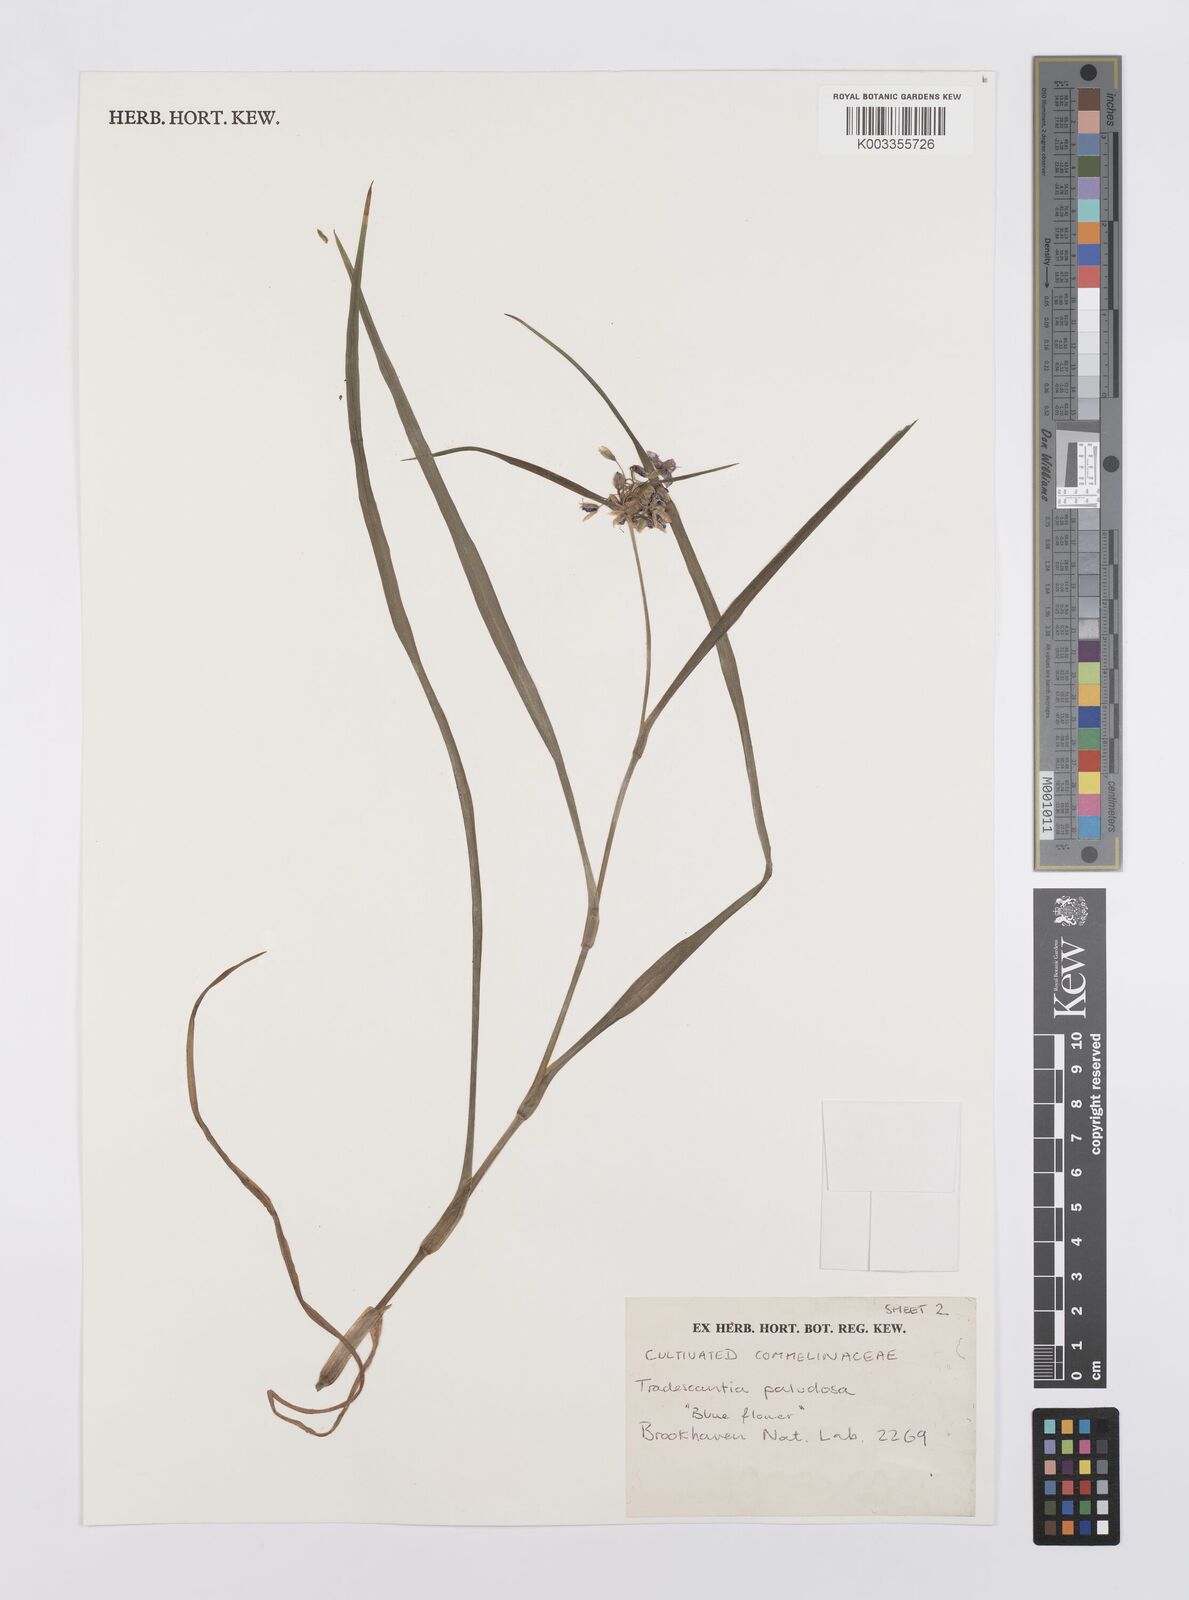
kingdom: Plantae
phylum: Tracheophyta
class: Liliopsida
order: Commelinales
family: Commelinaceae
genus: Tradescantia
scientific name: Tradescantia ohiensis
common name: Ohio spiderwort
